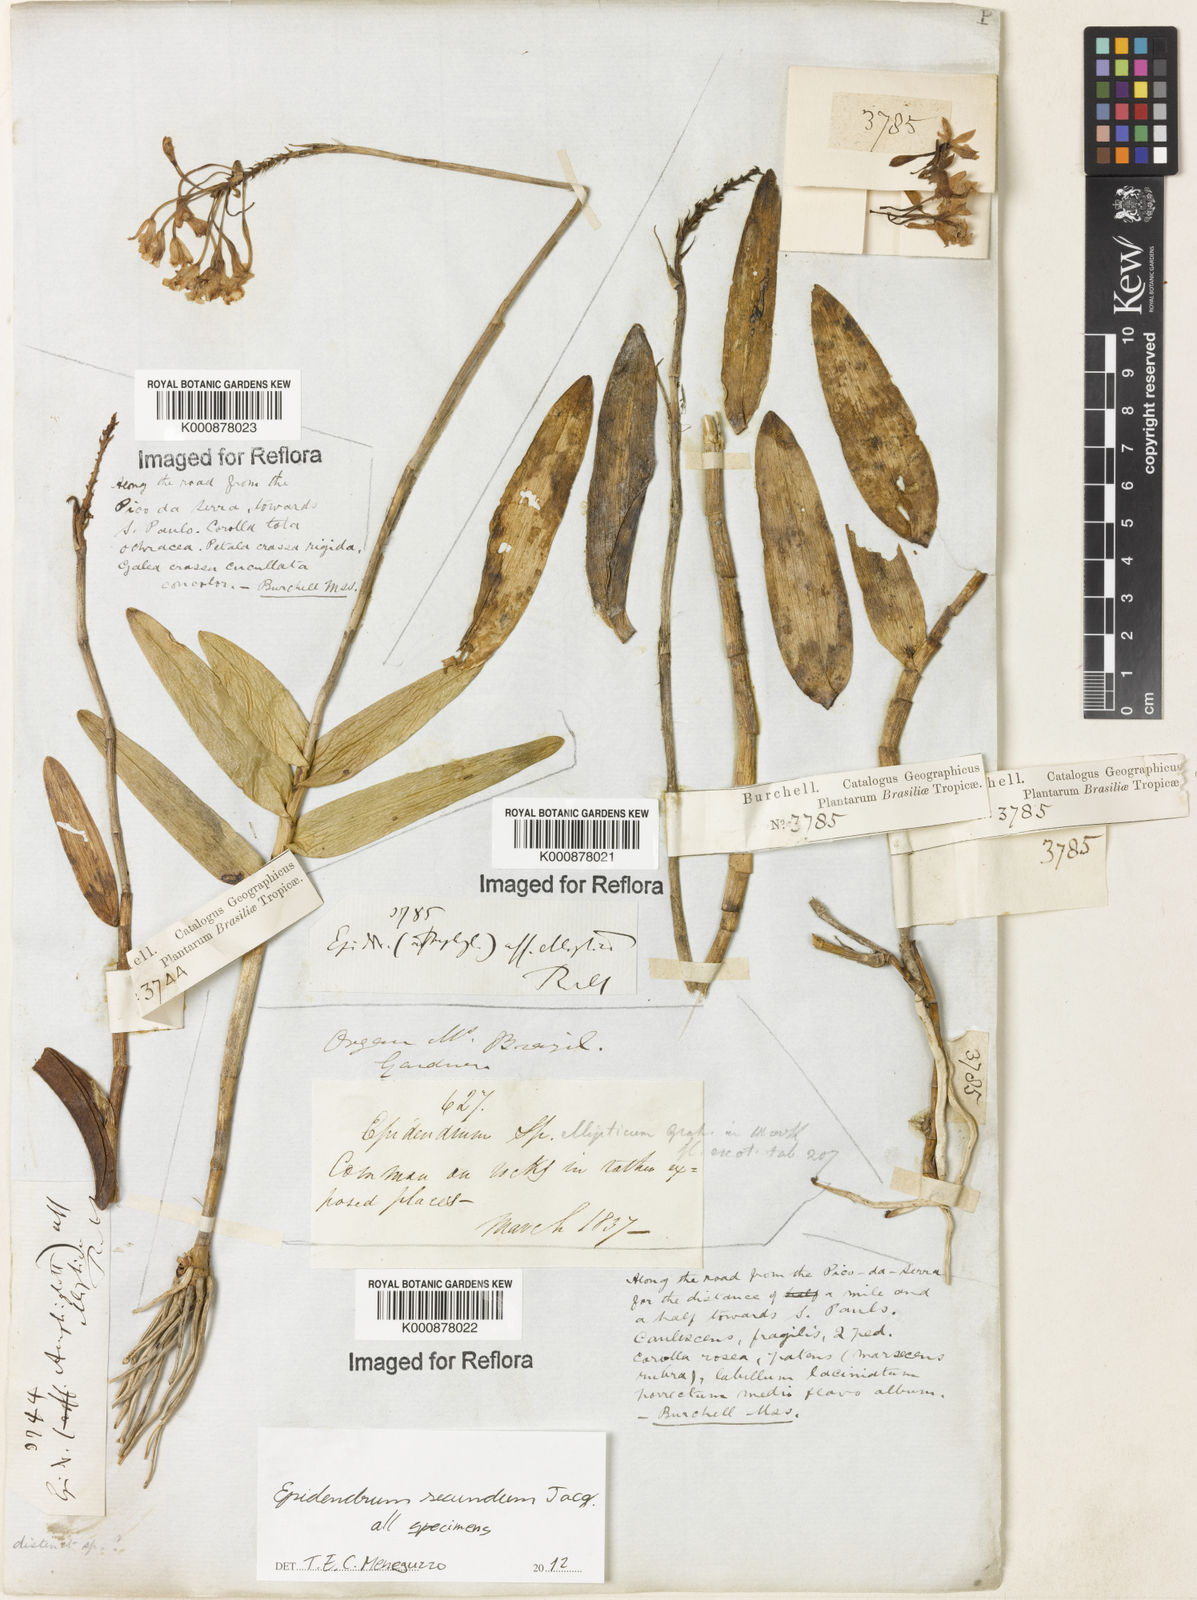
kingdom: Plantae
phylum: Tracheophyta
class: Liliopsida
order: Asparagales
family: Orchidaceae
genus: Epidendrum
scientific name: Epidendrum secundum
